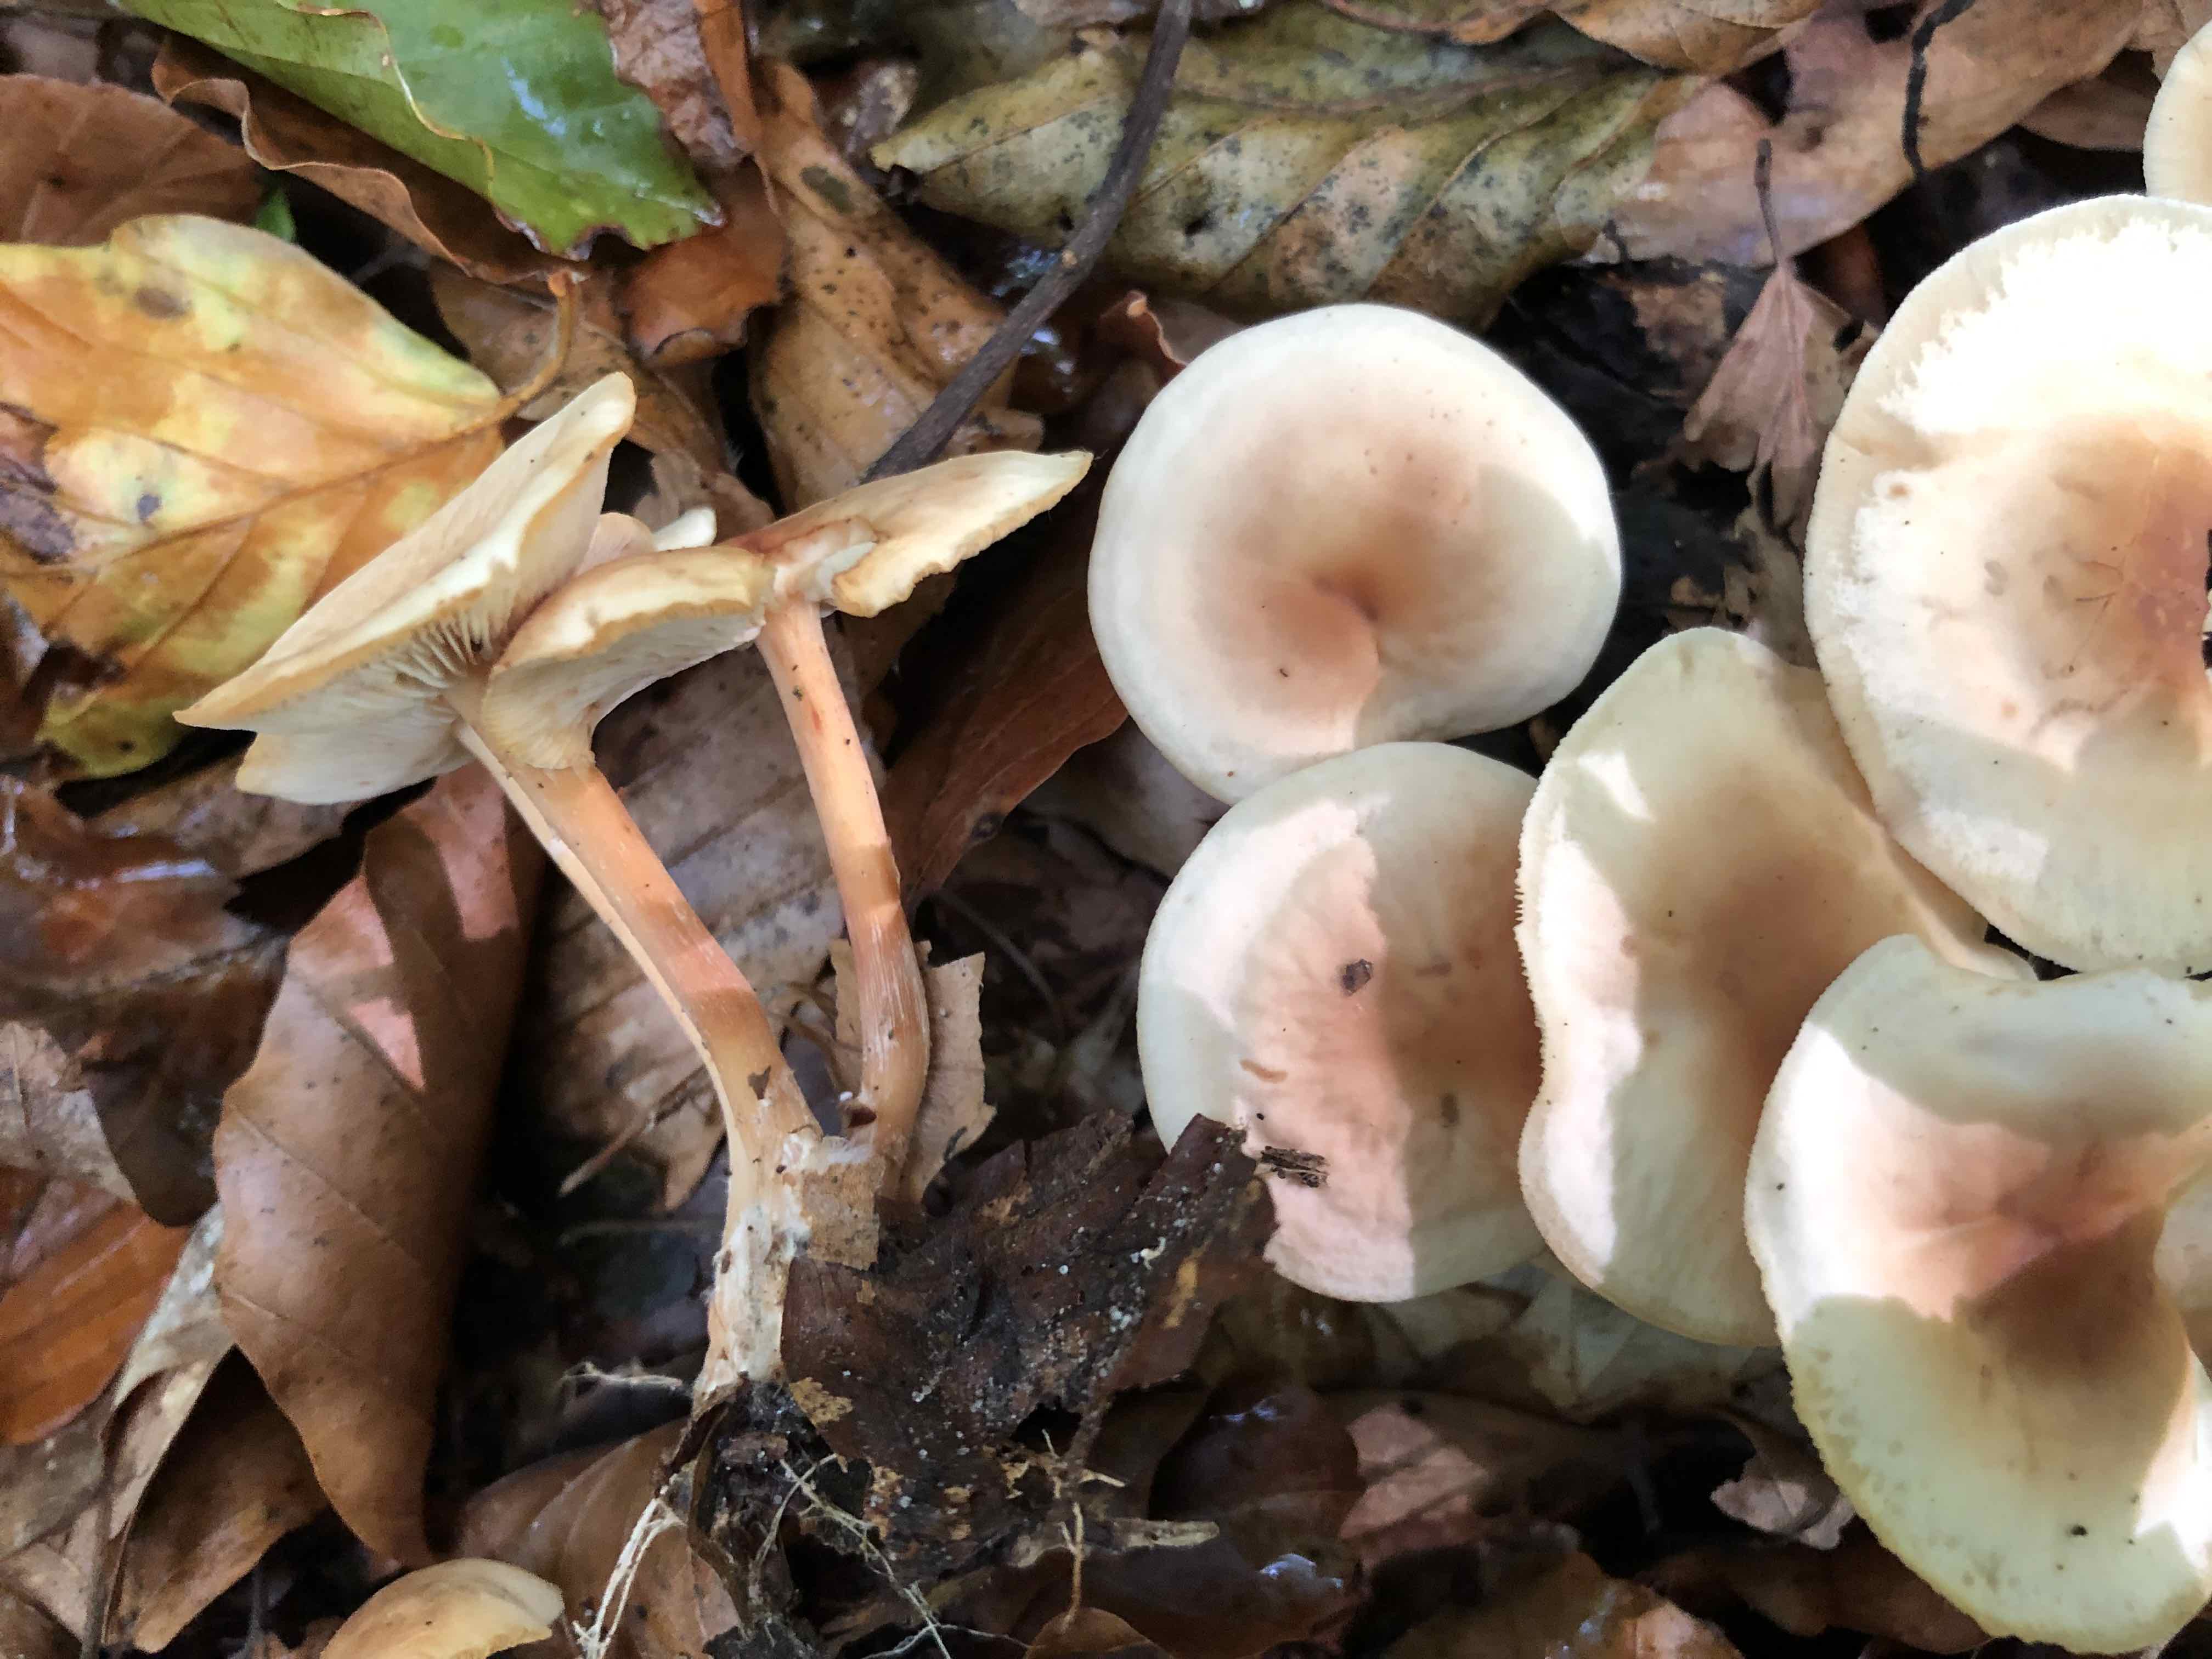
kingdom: Fungi
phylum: Basidiomycota
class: Agaricomycetes
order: Agaricales
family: Omphalotaceae
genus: Gymnopus
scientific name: Gymnopus dryophilus
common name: løv-fladhat
